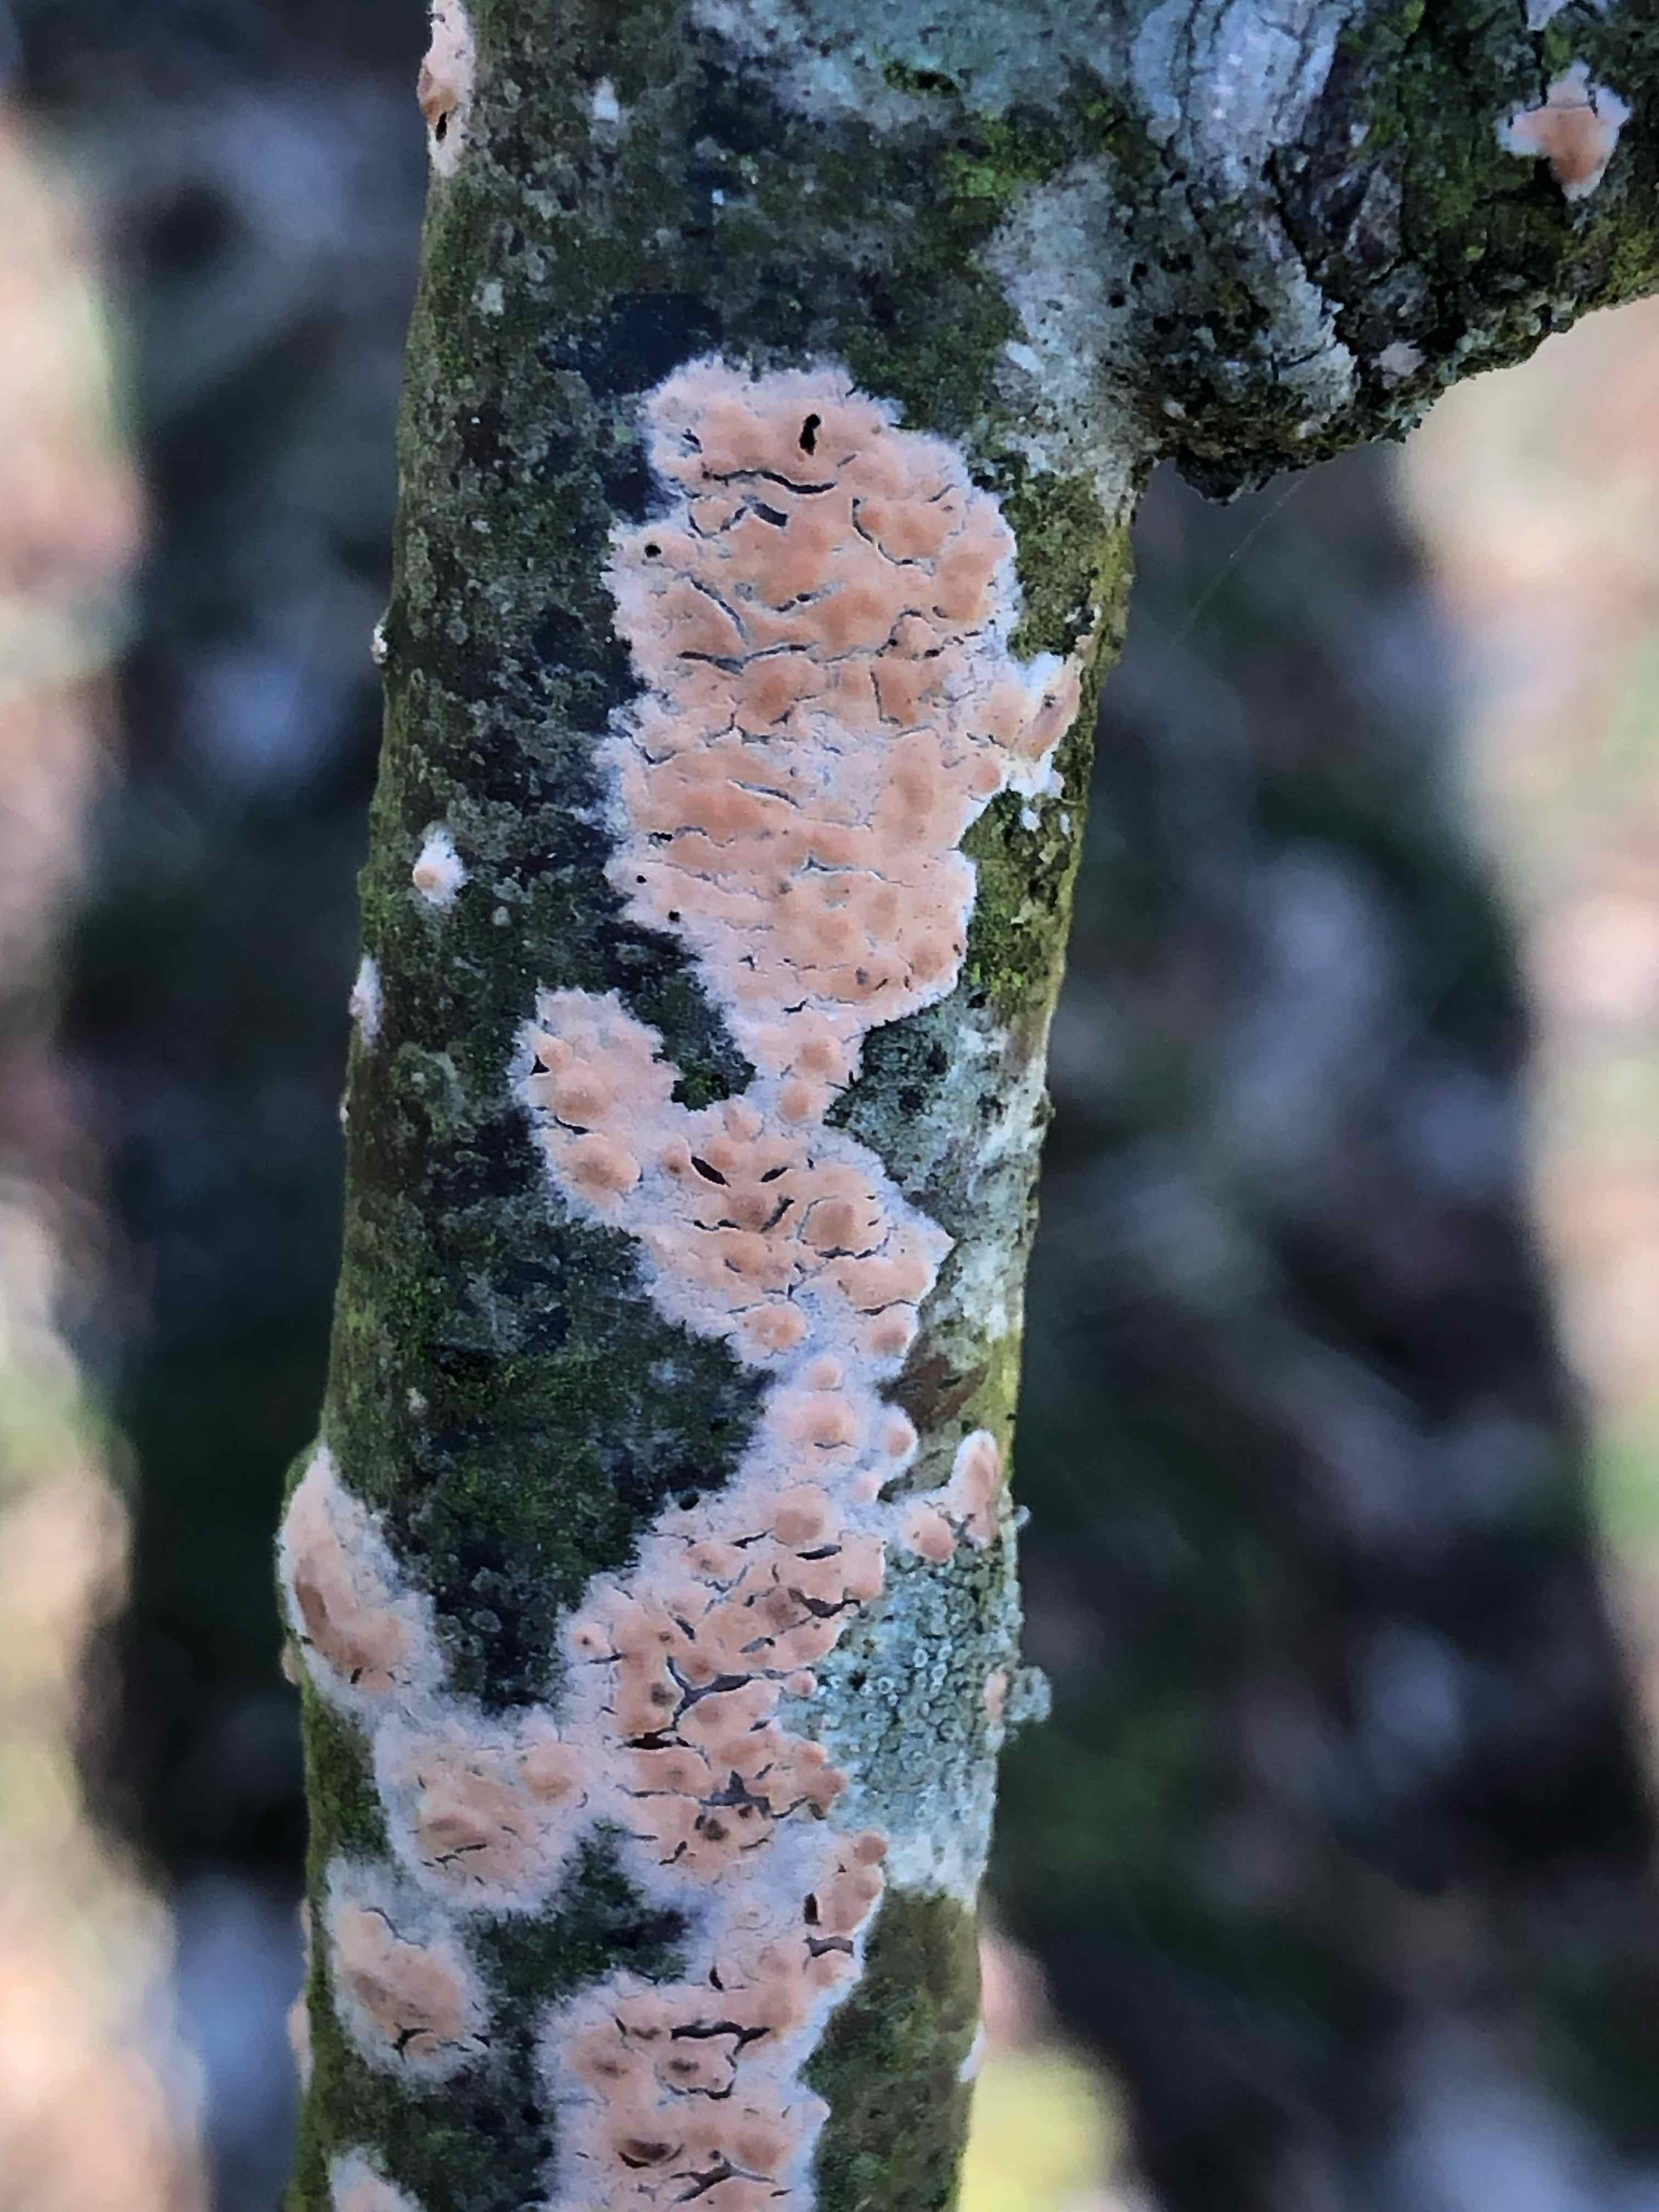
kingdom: Fungi
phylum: Basidiomycota
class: Agaricomycetes
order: Russulales
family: Peniophoraceae
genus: Peniophora
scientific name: Peniophora incarnata
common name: laksefarvet voksskind
